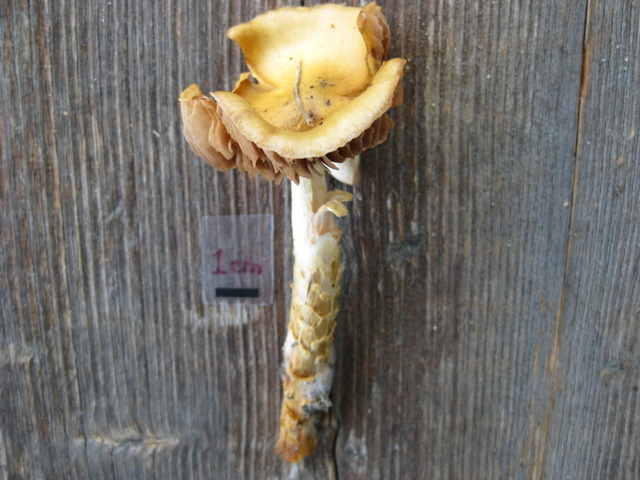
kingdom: Fungi
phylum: Basidiomycota
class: Agaricomycetes
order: Agaricales
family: Cortinariaceae
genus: Cortinarius
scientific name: Cortinarius trivialis
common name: brunslimet slørhat
